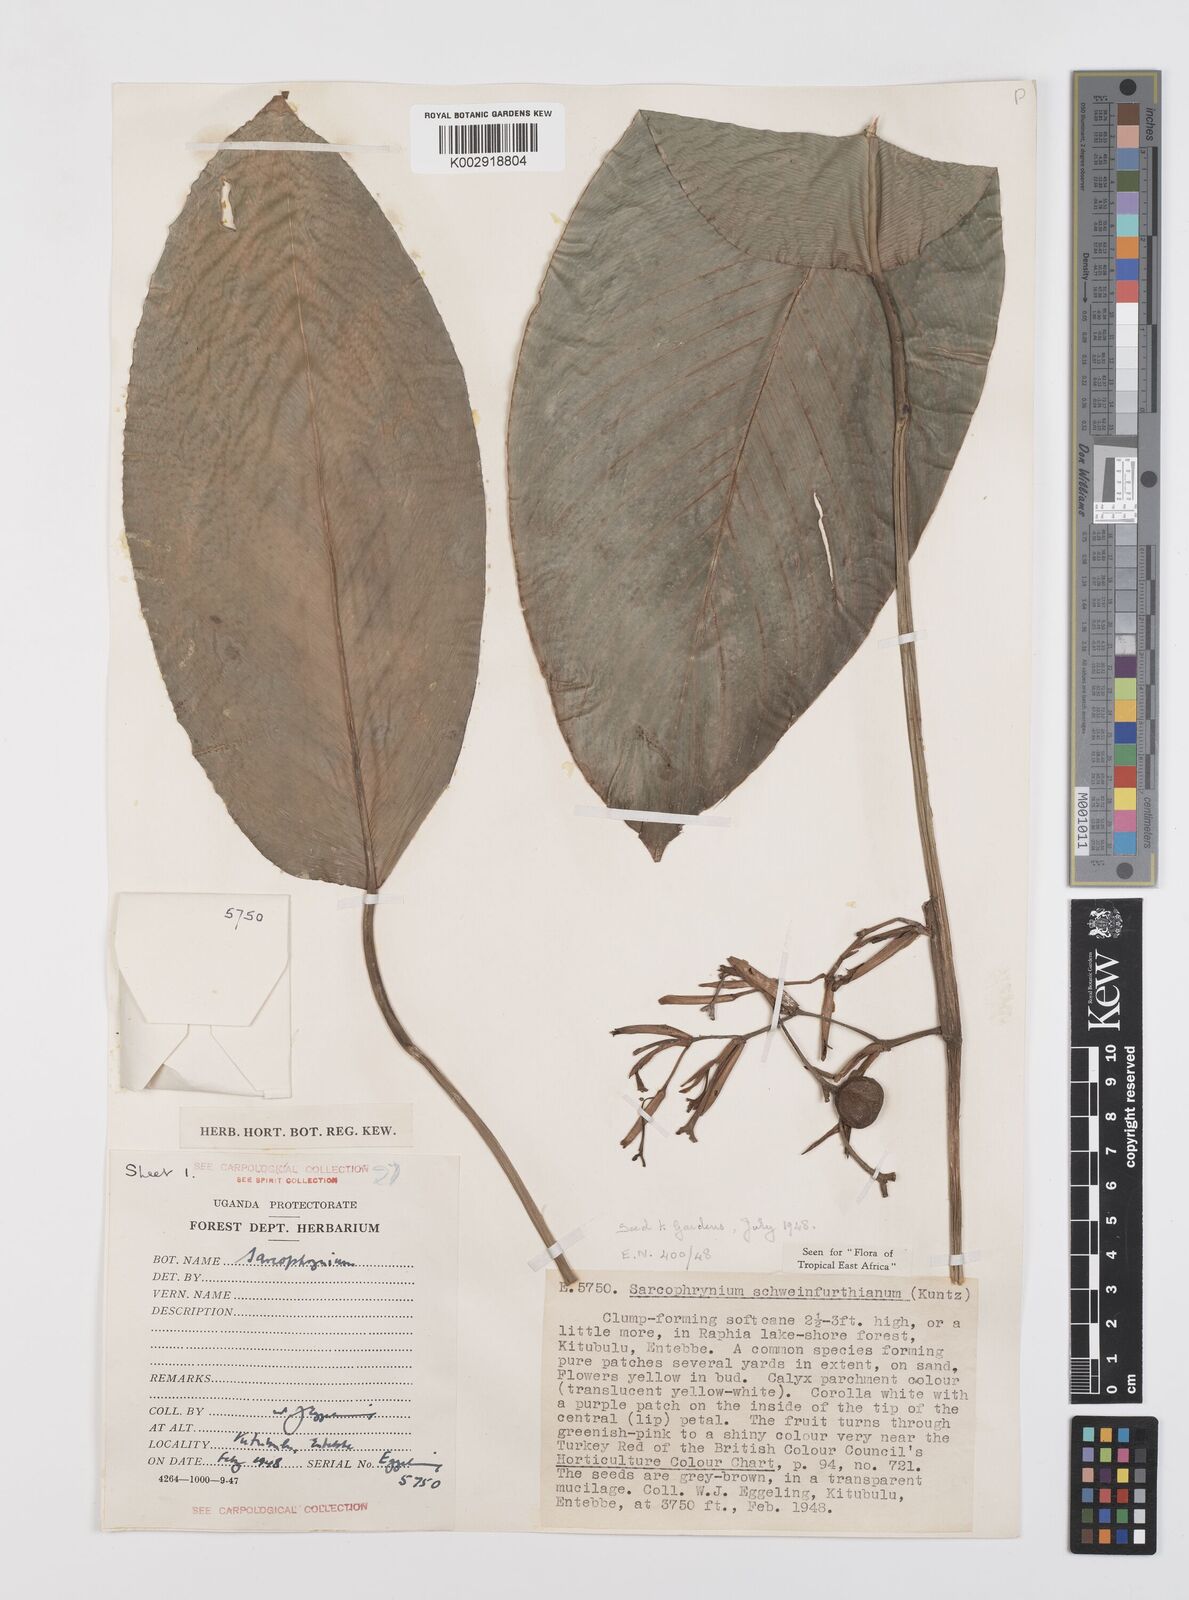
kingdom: Plantae
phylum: Tracheophyta
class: Liliopsida
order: Zingiberales
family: Marantaceae
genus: Sarcophrynium
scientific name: Sarcophrynium schweinfurthianum
